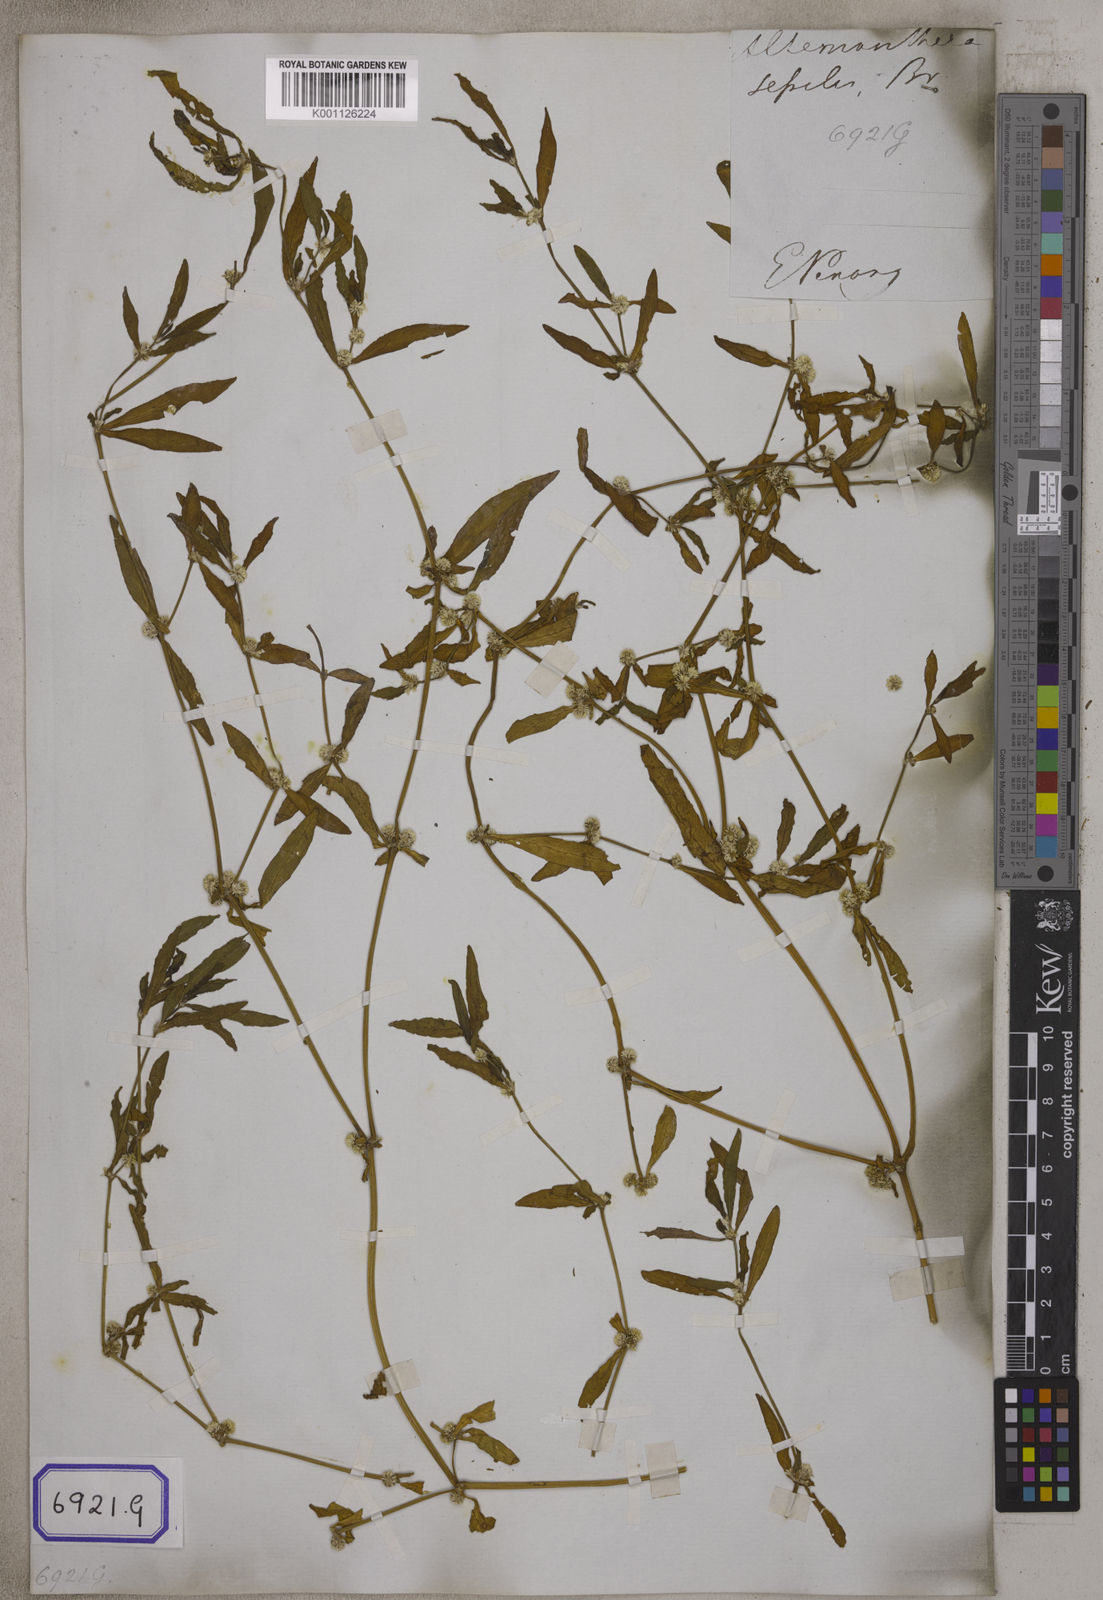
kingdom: Plantae
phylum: Tracheophyta
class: Magnoliopsida
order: Caryophyllales
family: Amaranthaceae
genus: Alternanthera
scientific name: Alternanthera
